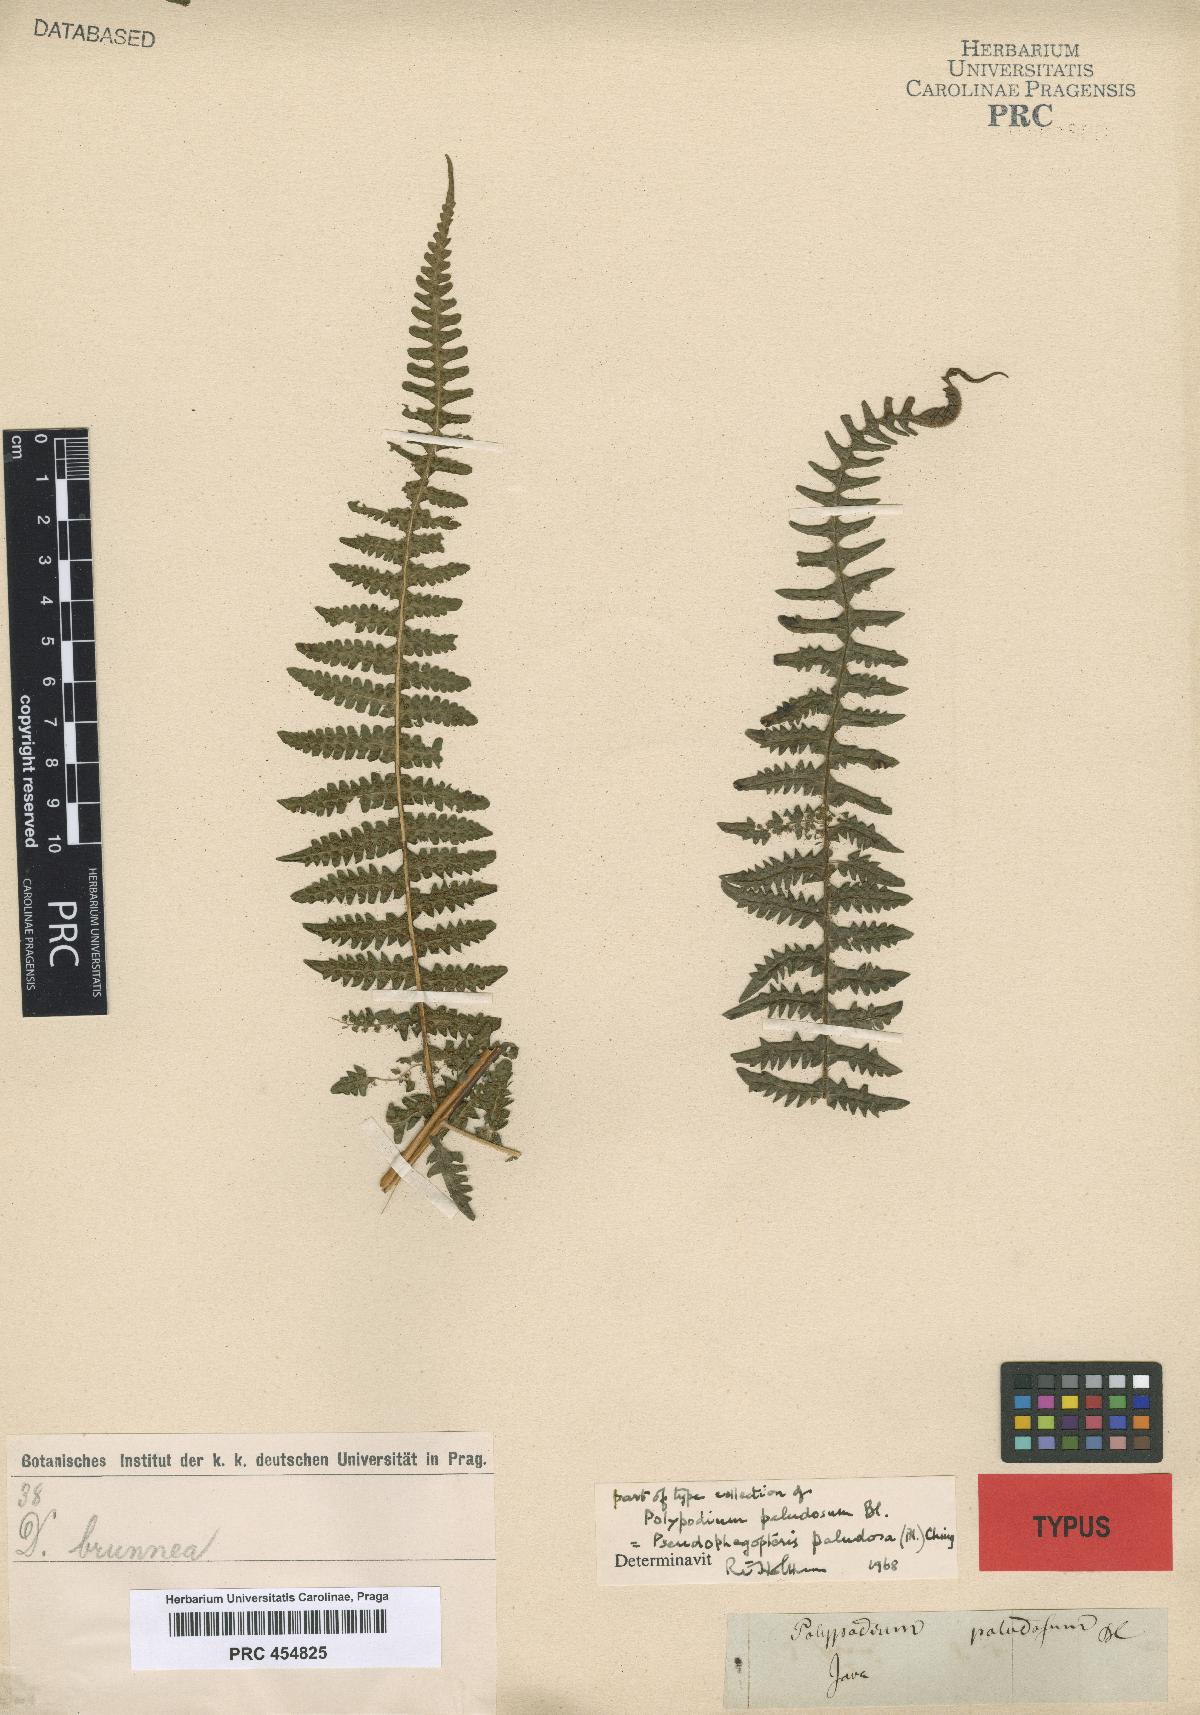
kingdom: Plantae
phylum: Tracheophyta
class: Polypodiopsida
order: Polypodiales
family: Thelypteridaceae
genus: Pseudophegopteris
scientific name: Pseudophegopteris paludosa
